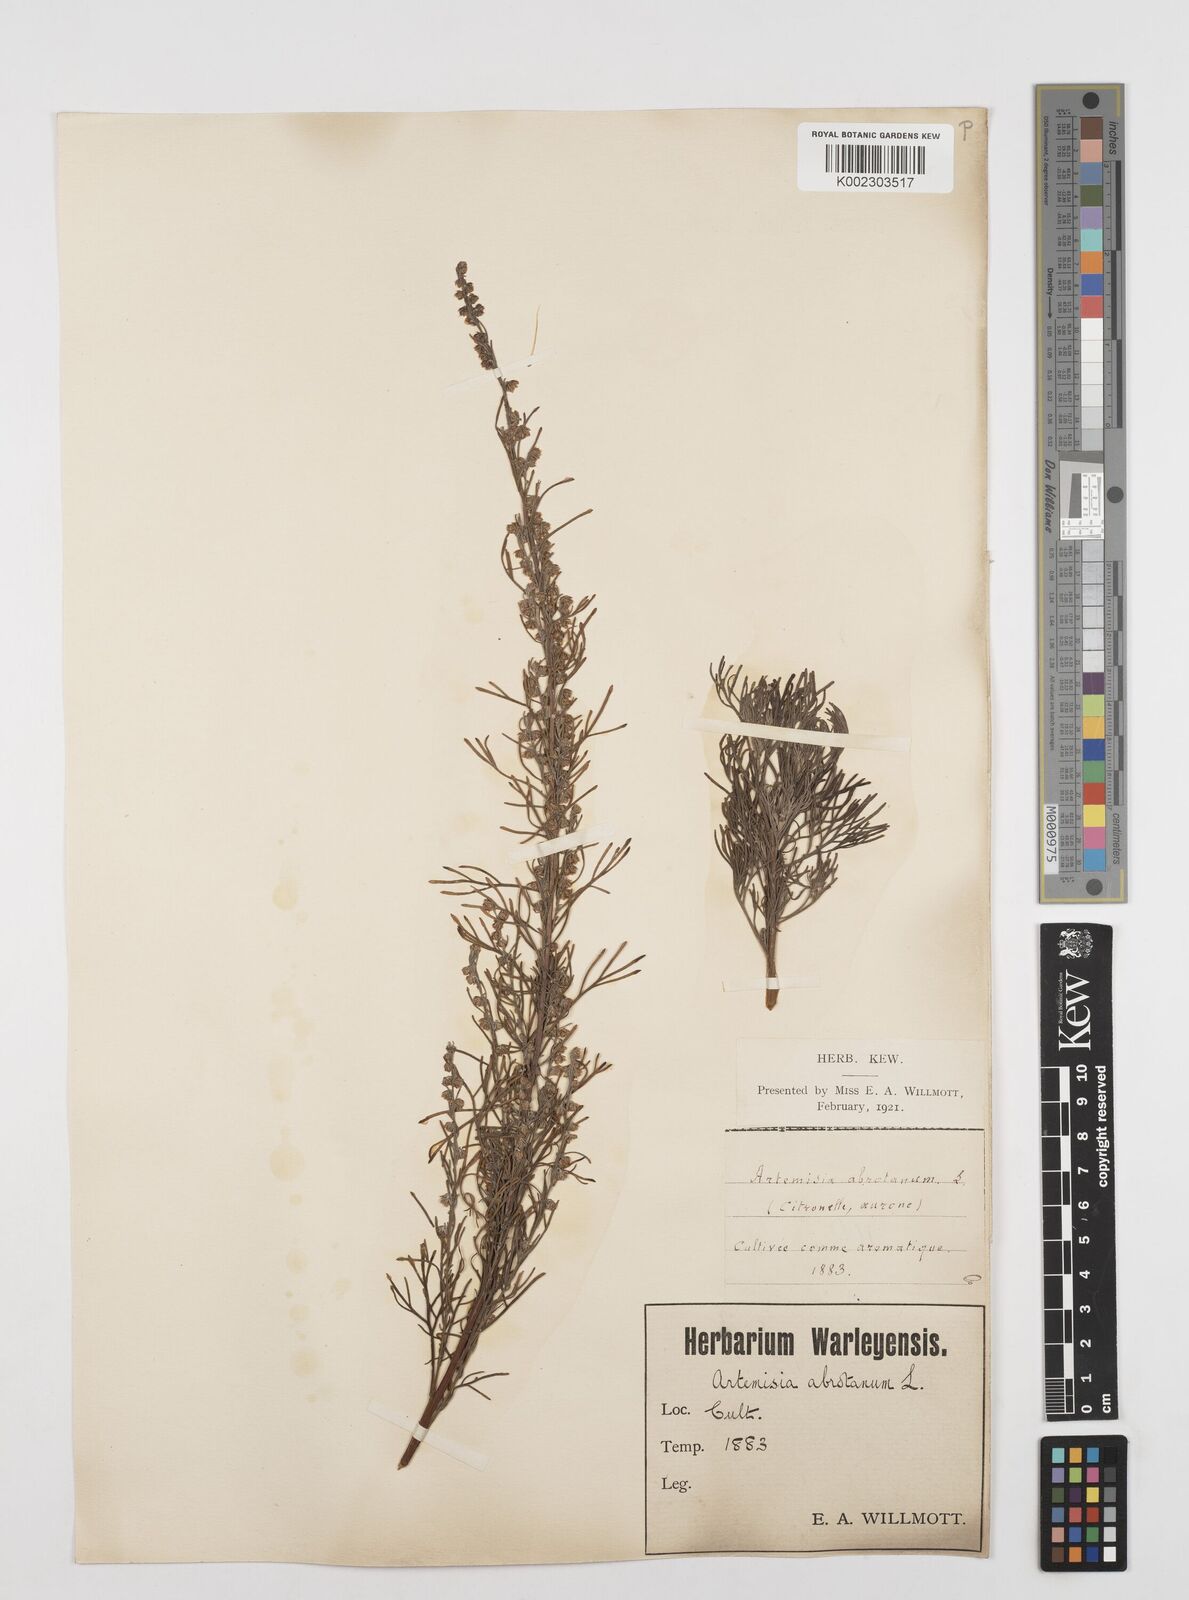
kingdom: Plantae
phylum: Tracheophyta
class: Magnoliopsida
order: Asterales
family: Asteraceae
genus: Artemisia
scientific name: Artemisia abrotanum
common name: Southernwood
